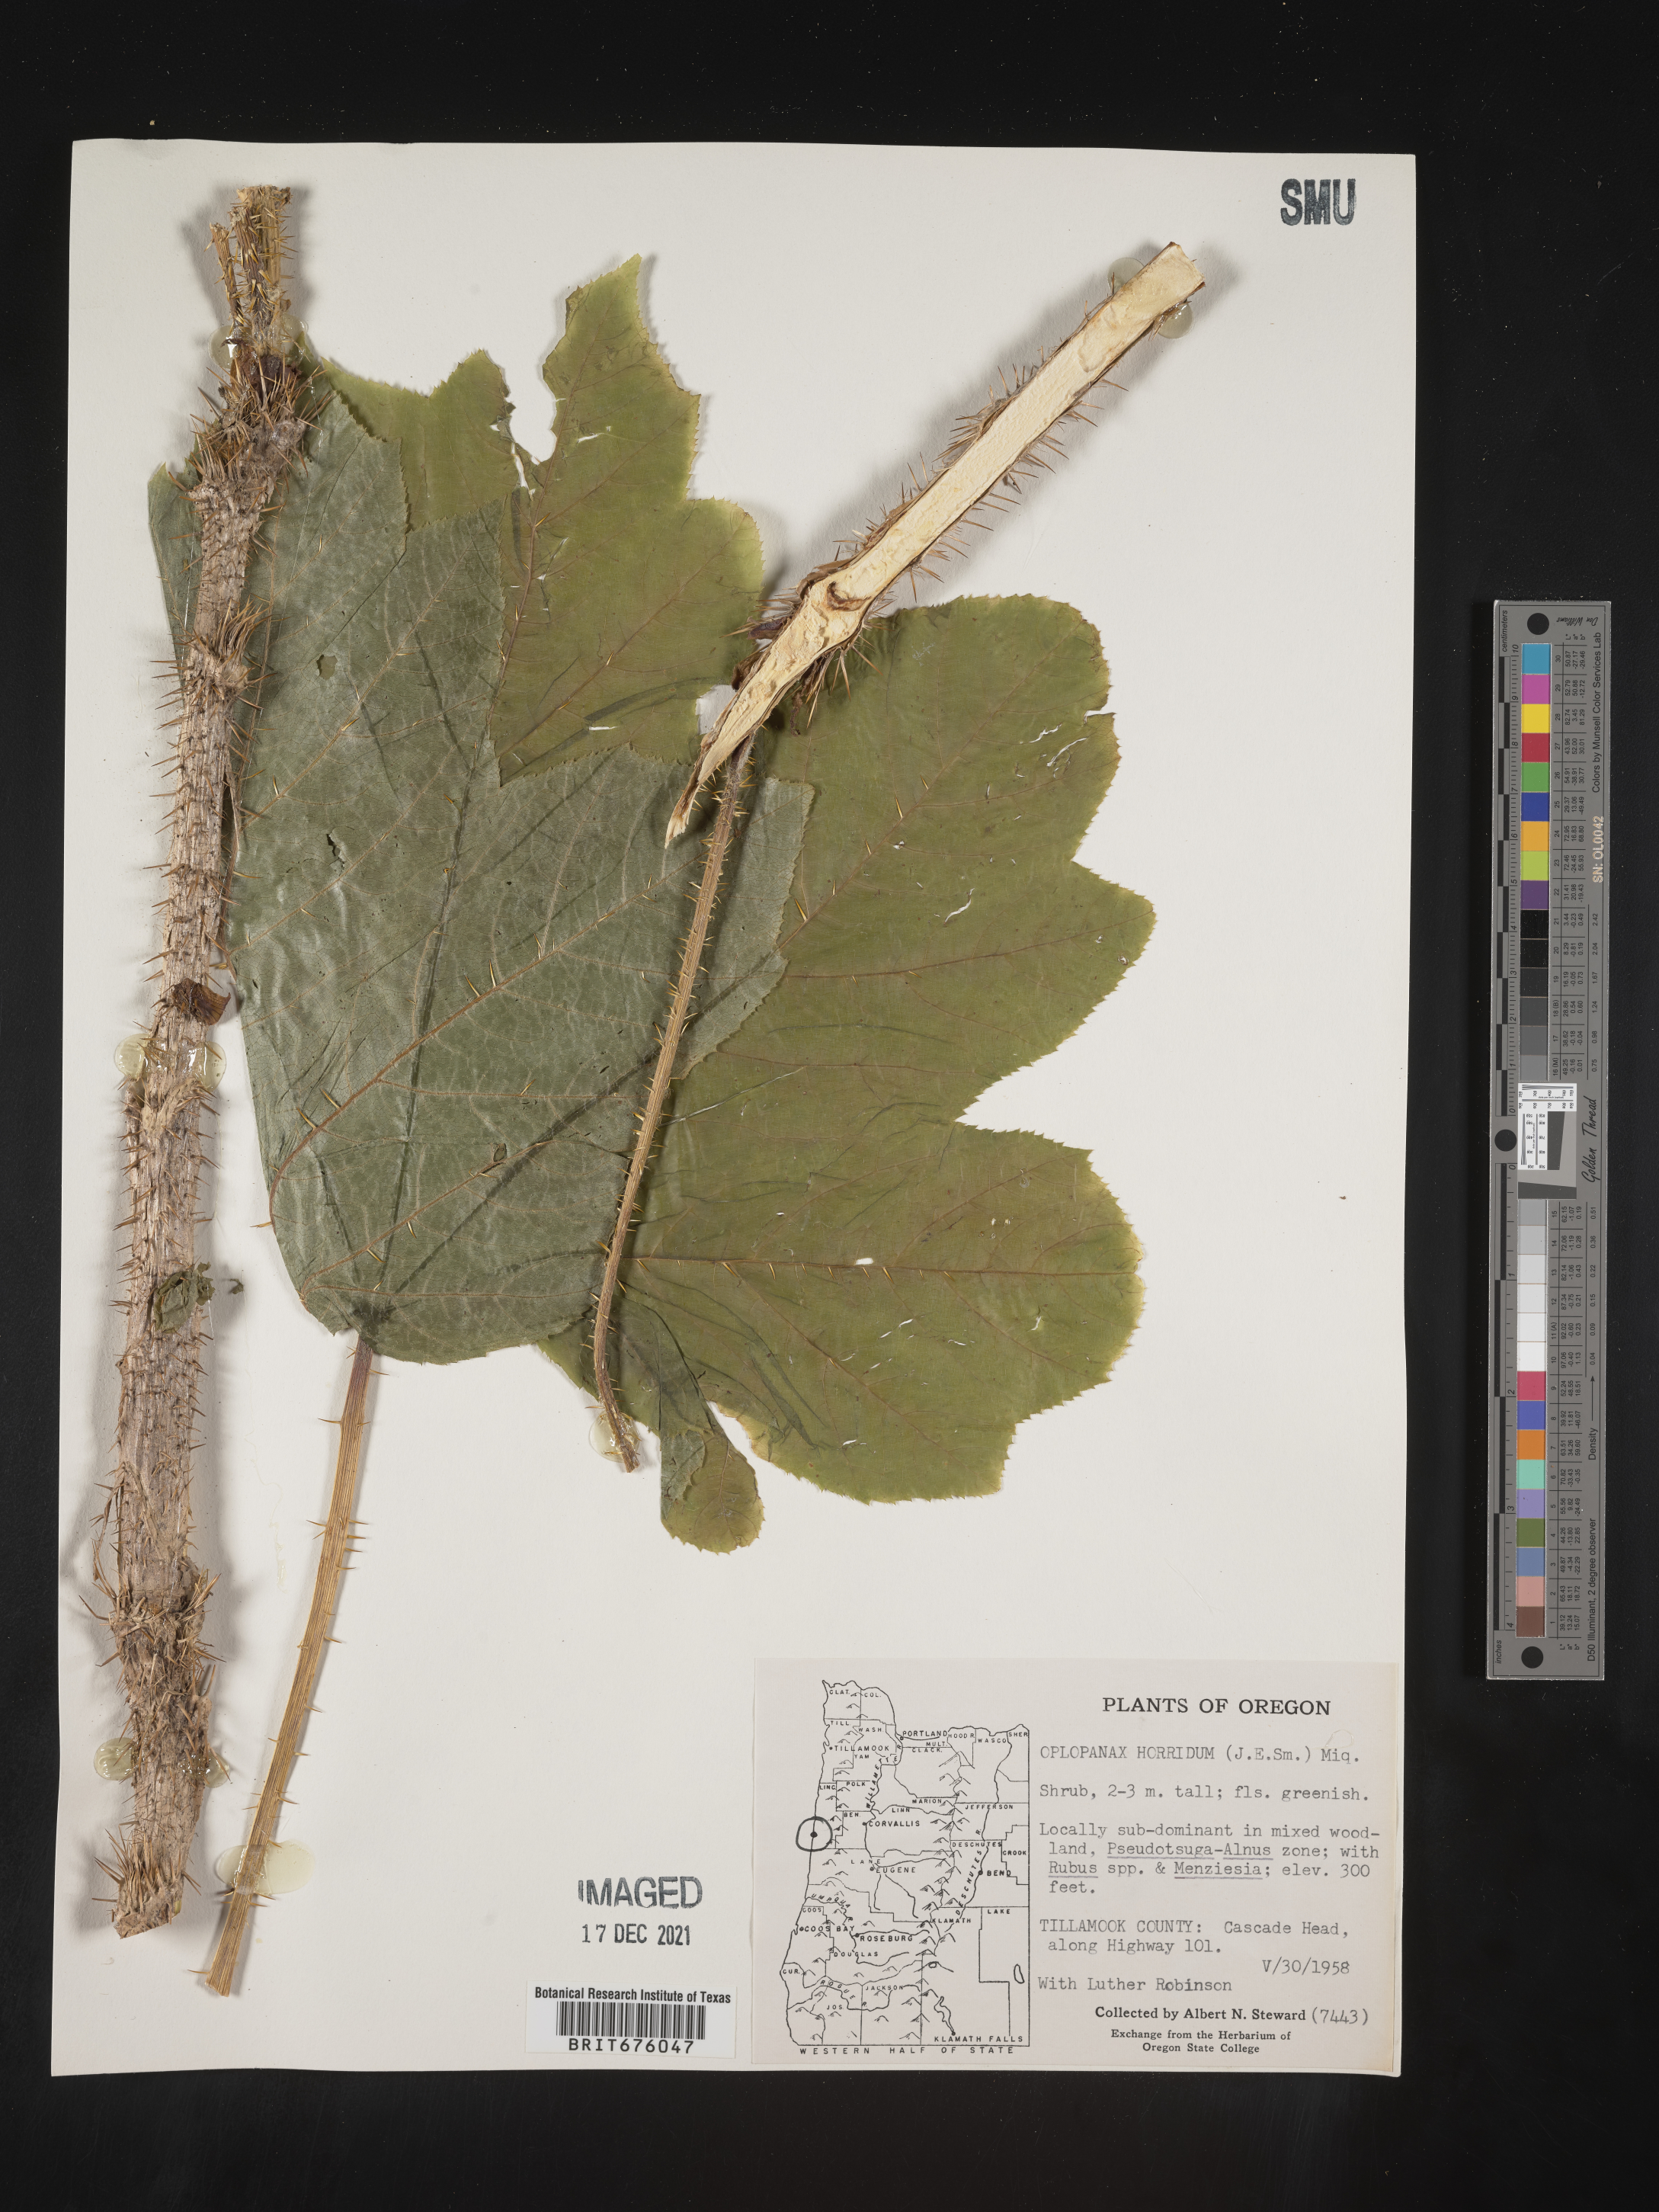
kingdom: Plantae
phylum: Tracheophyta
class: Magnoliopsida
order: Apiales
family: Araliaceae
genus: Oplopanax
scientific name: Oplopanax
